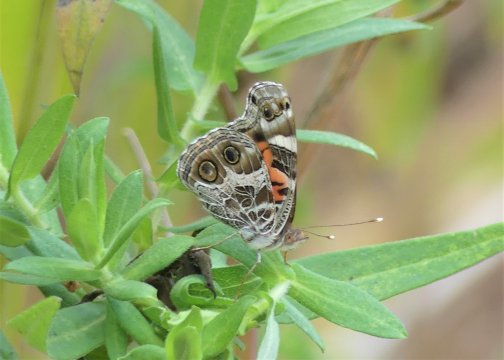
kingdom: Animalia
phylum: Arthropoda
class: Insecta
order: Lepidoptera
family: Nymphalidae
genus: Vanessa
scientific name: Vanessa virginiensis
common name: American Lady
